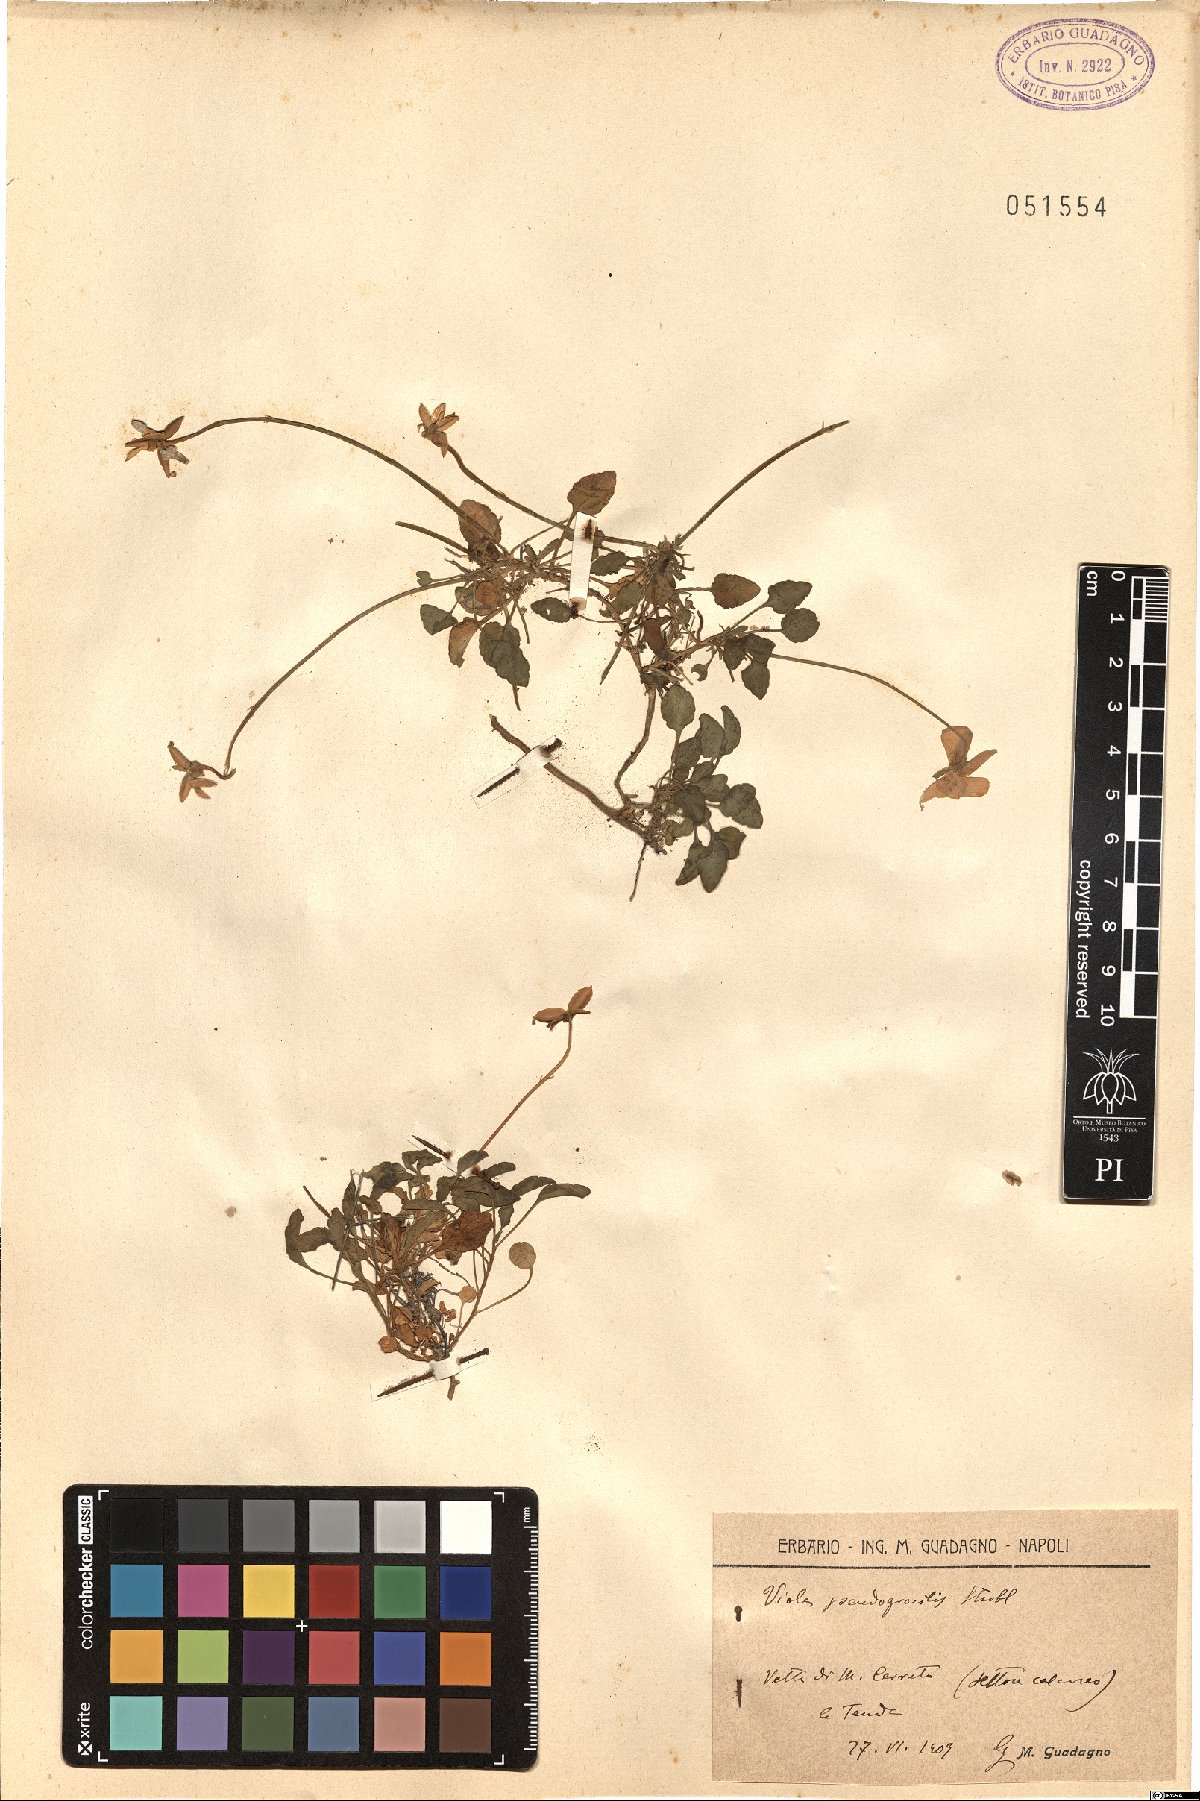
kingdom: Plantae
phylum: Tracheophyta
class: Magnoliopsida
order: Malpighiales
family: Violaceae
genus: Viola
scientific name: Viola pseudogracilis
